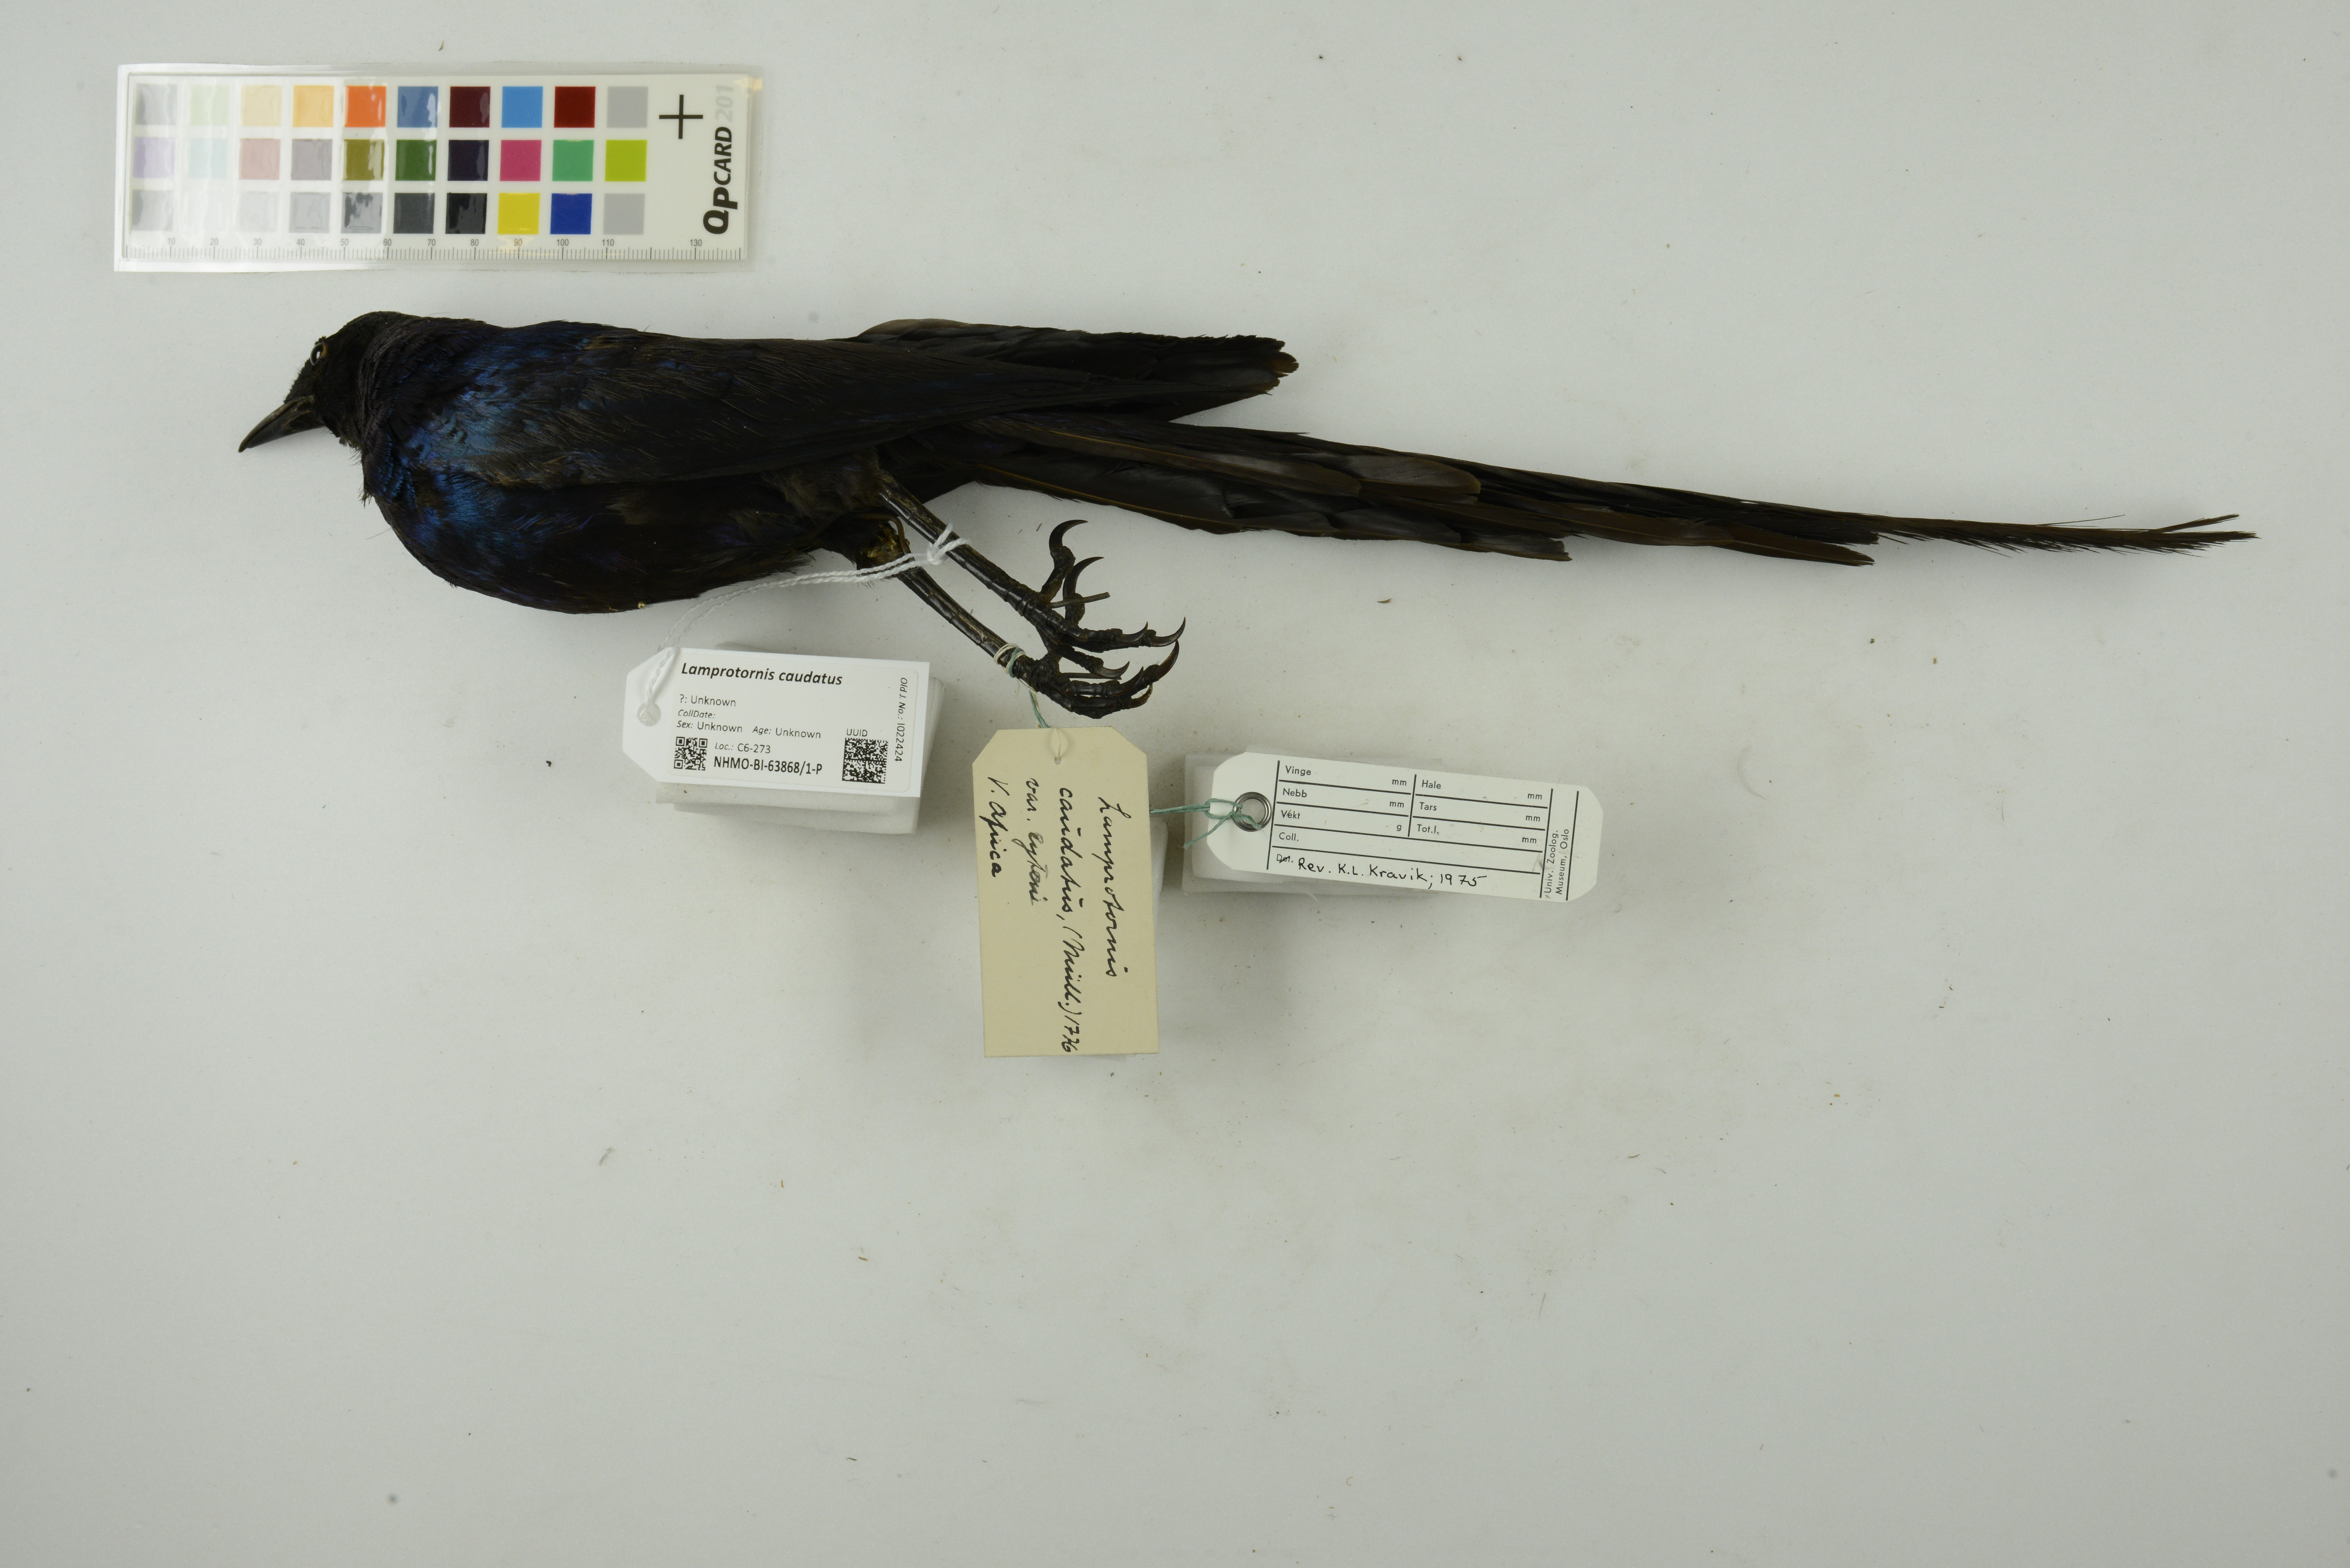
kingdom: Animalia
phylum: Chordata
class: Aves
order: Passeriformes
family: Sturnidae
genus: Lamprotornis
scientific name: Lamprotornis caudatus
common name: Long-tailed glossy starling
